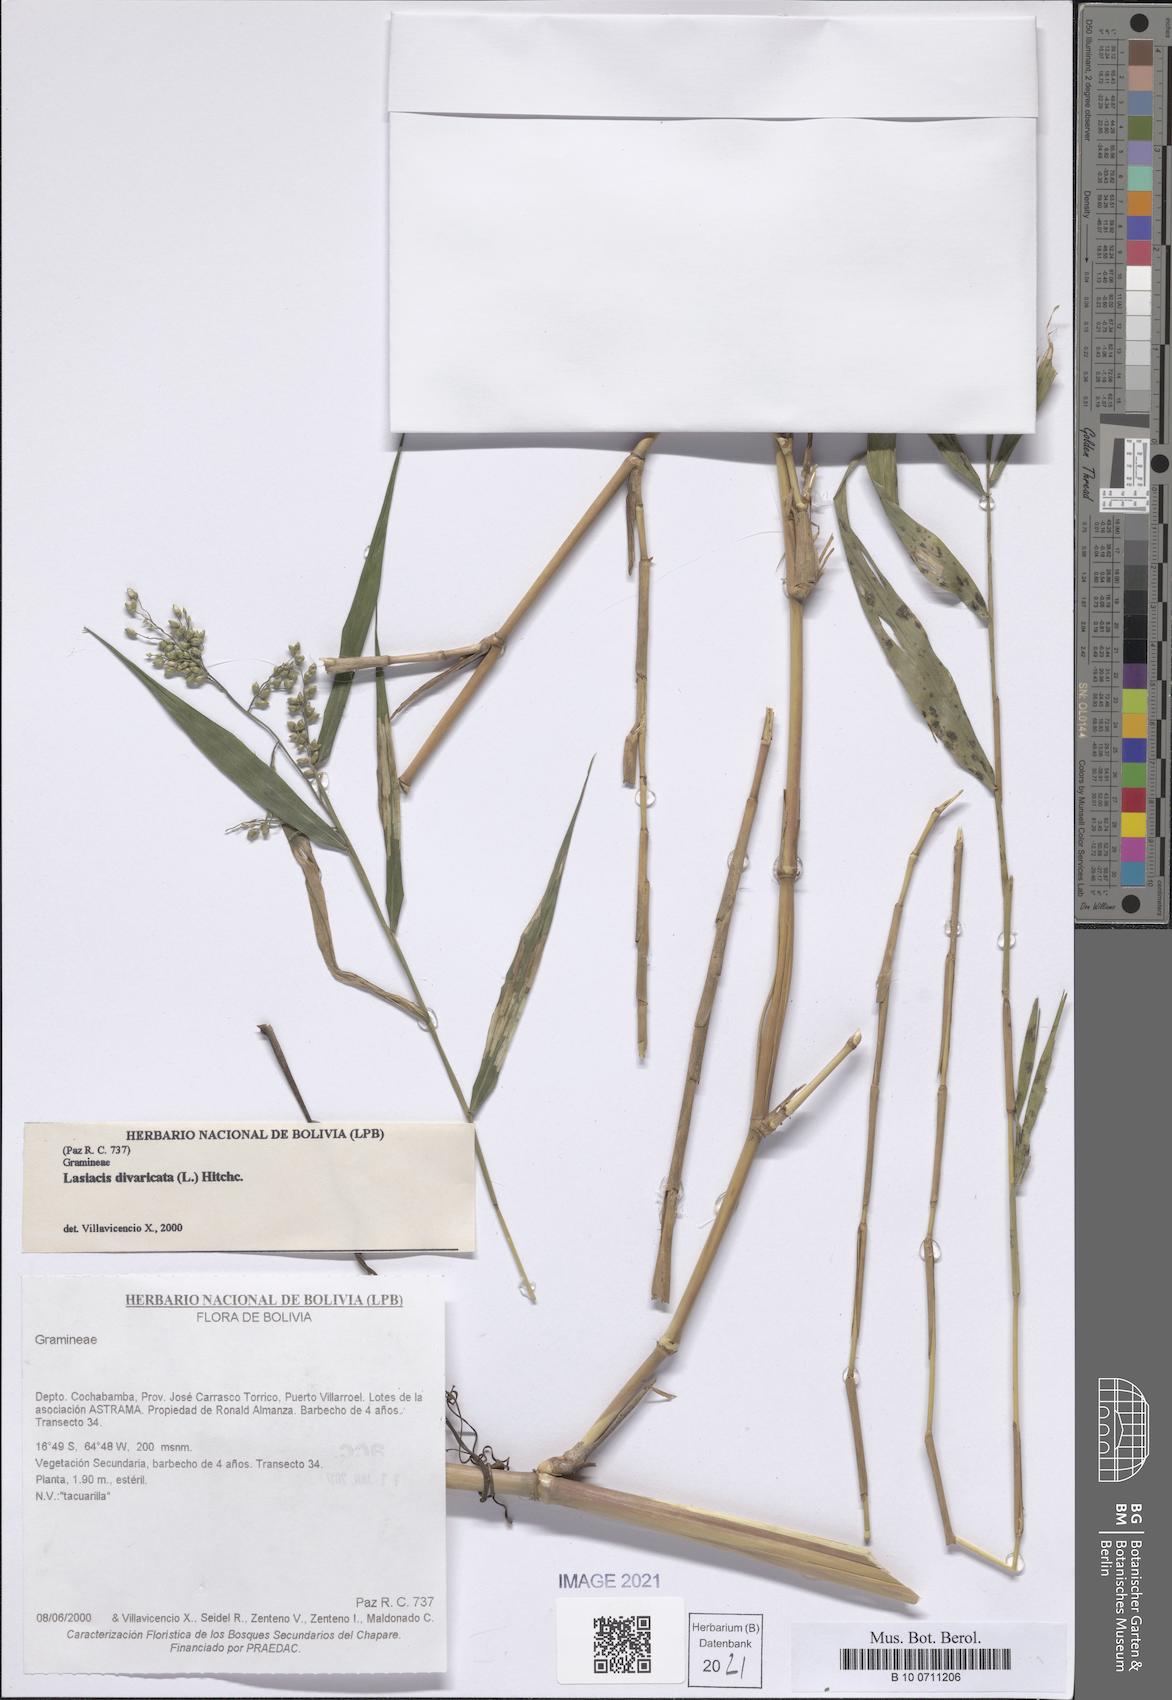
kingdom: Plantae
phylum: Tracheophyta
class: Liliopsida
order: Poales
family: Poaceae
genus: Lasiacis
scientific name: Lasiacis divaricata
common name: Smallcane
